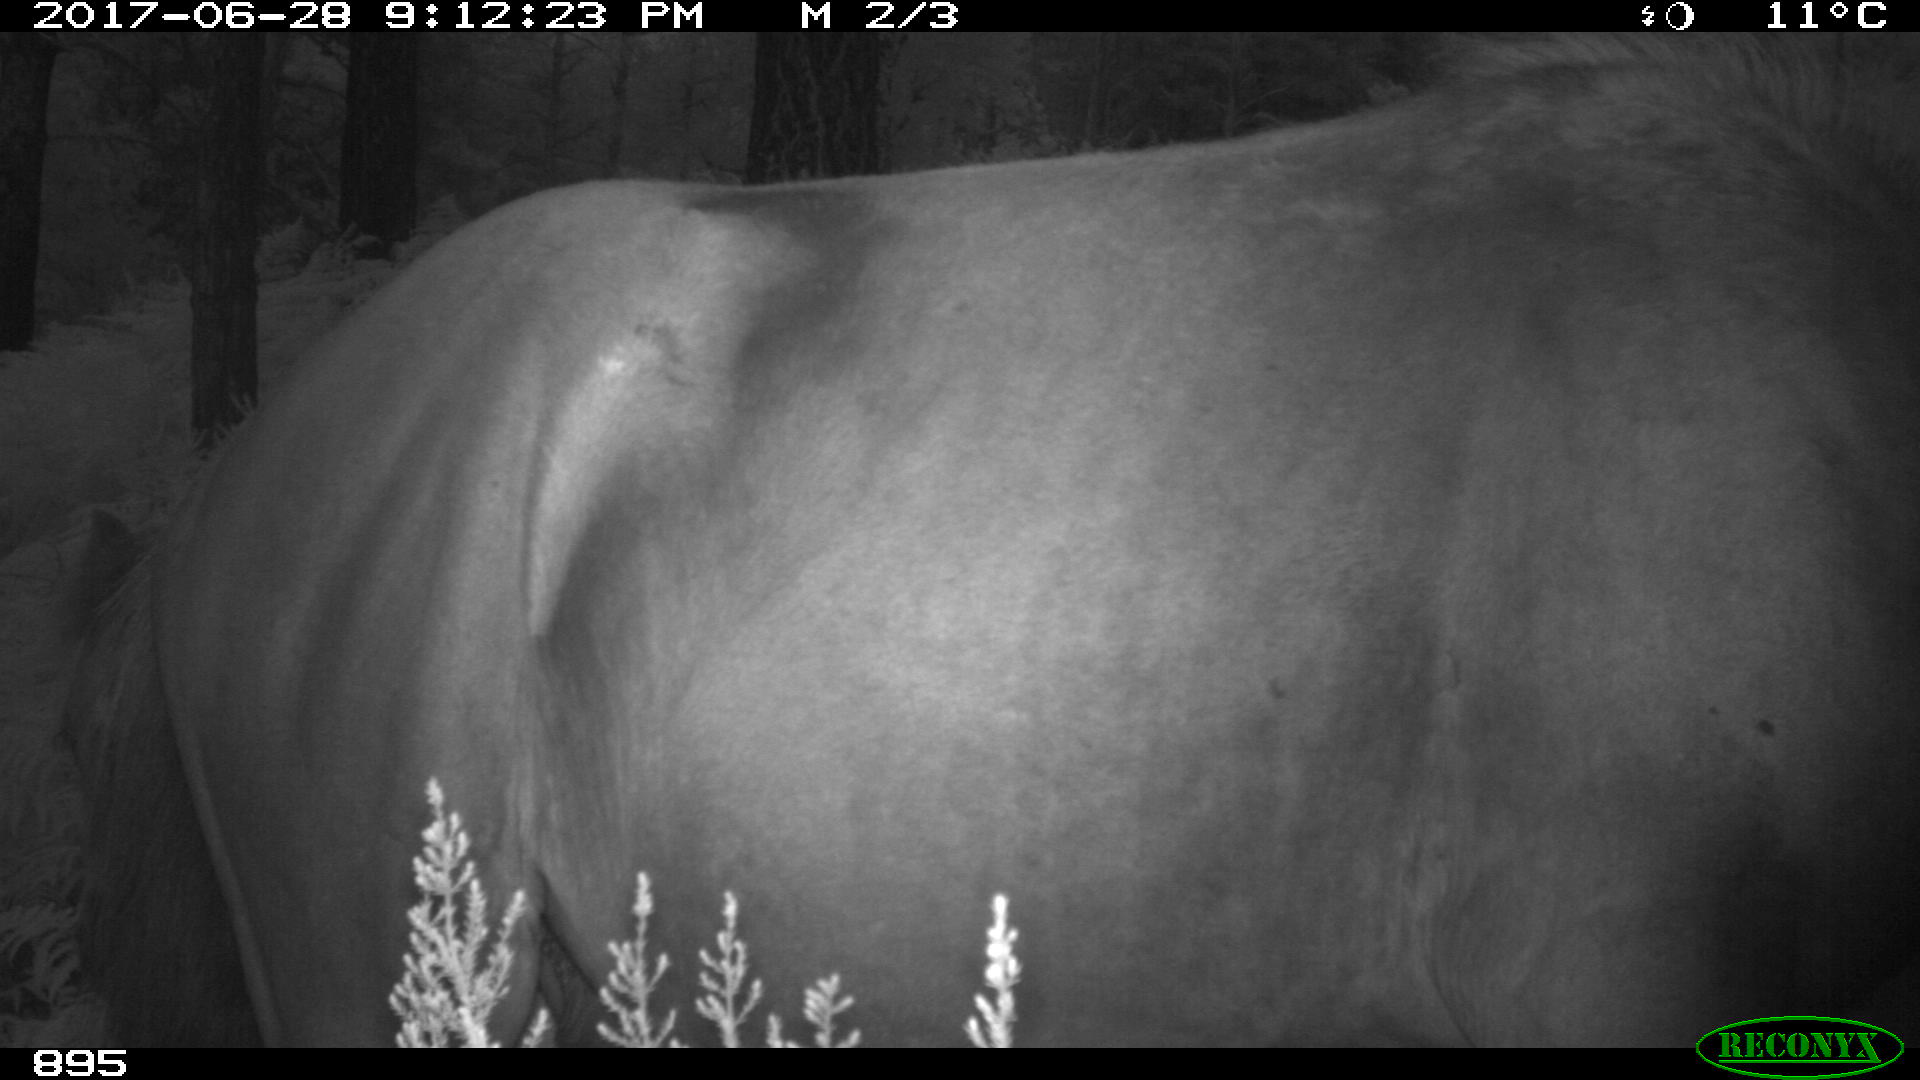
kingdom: Animalia
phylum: Chordata
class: Mammalia
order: Perissodactyla
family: Equidae
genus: Equus
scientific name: Equus caballus
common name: Horse
